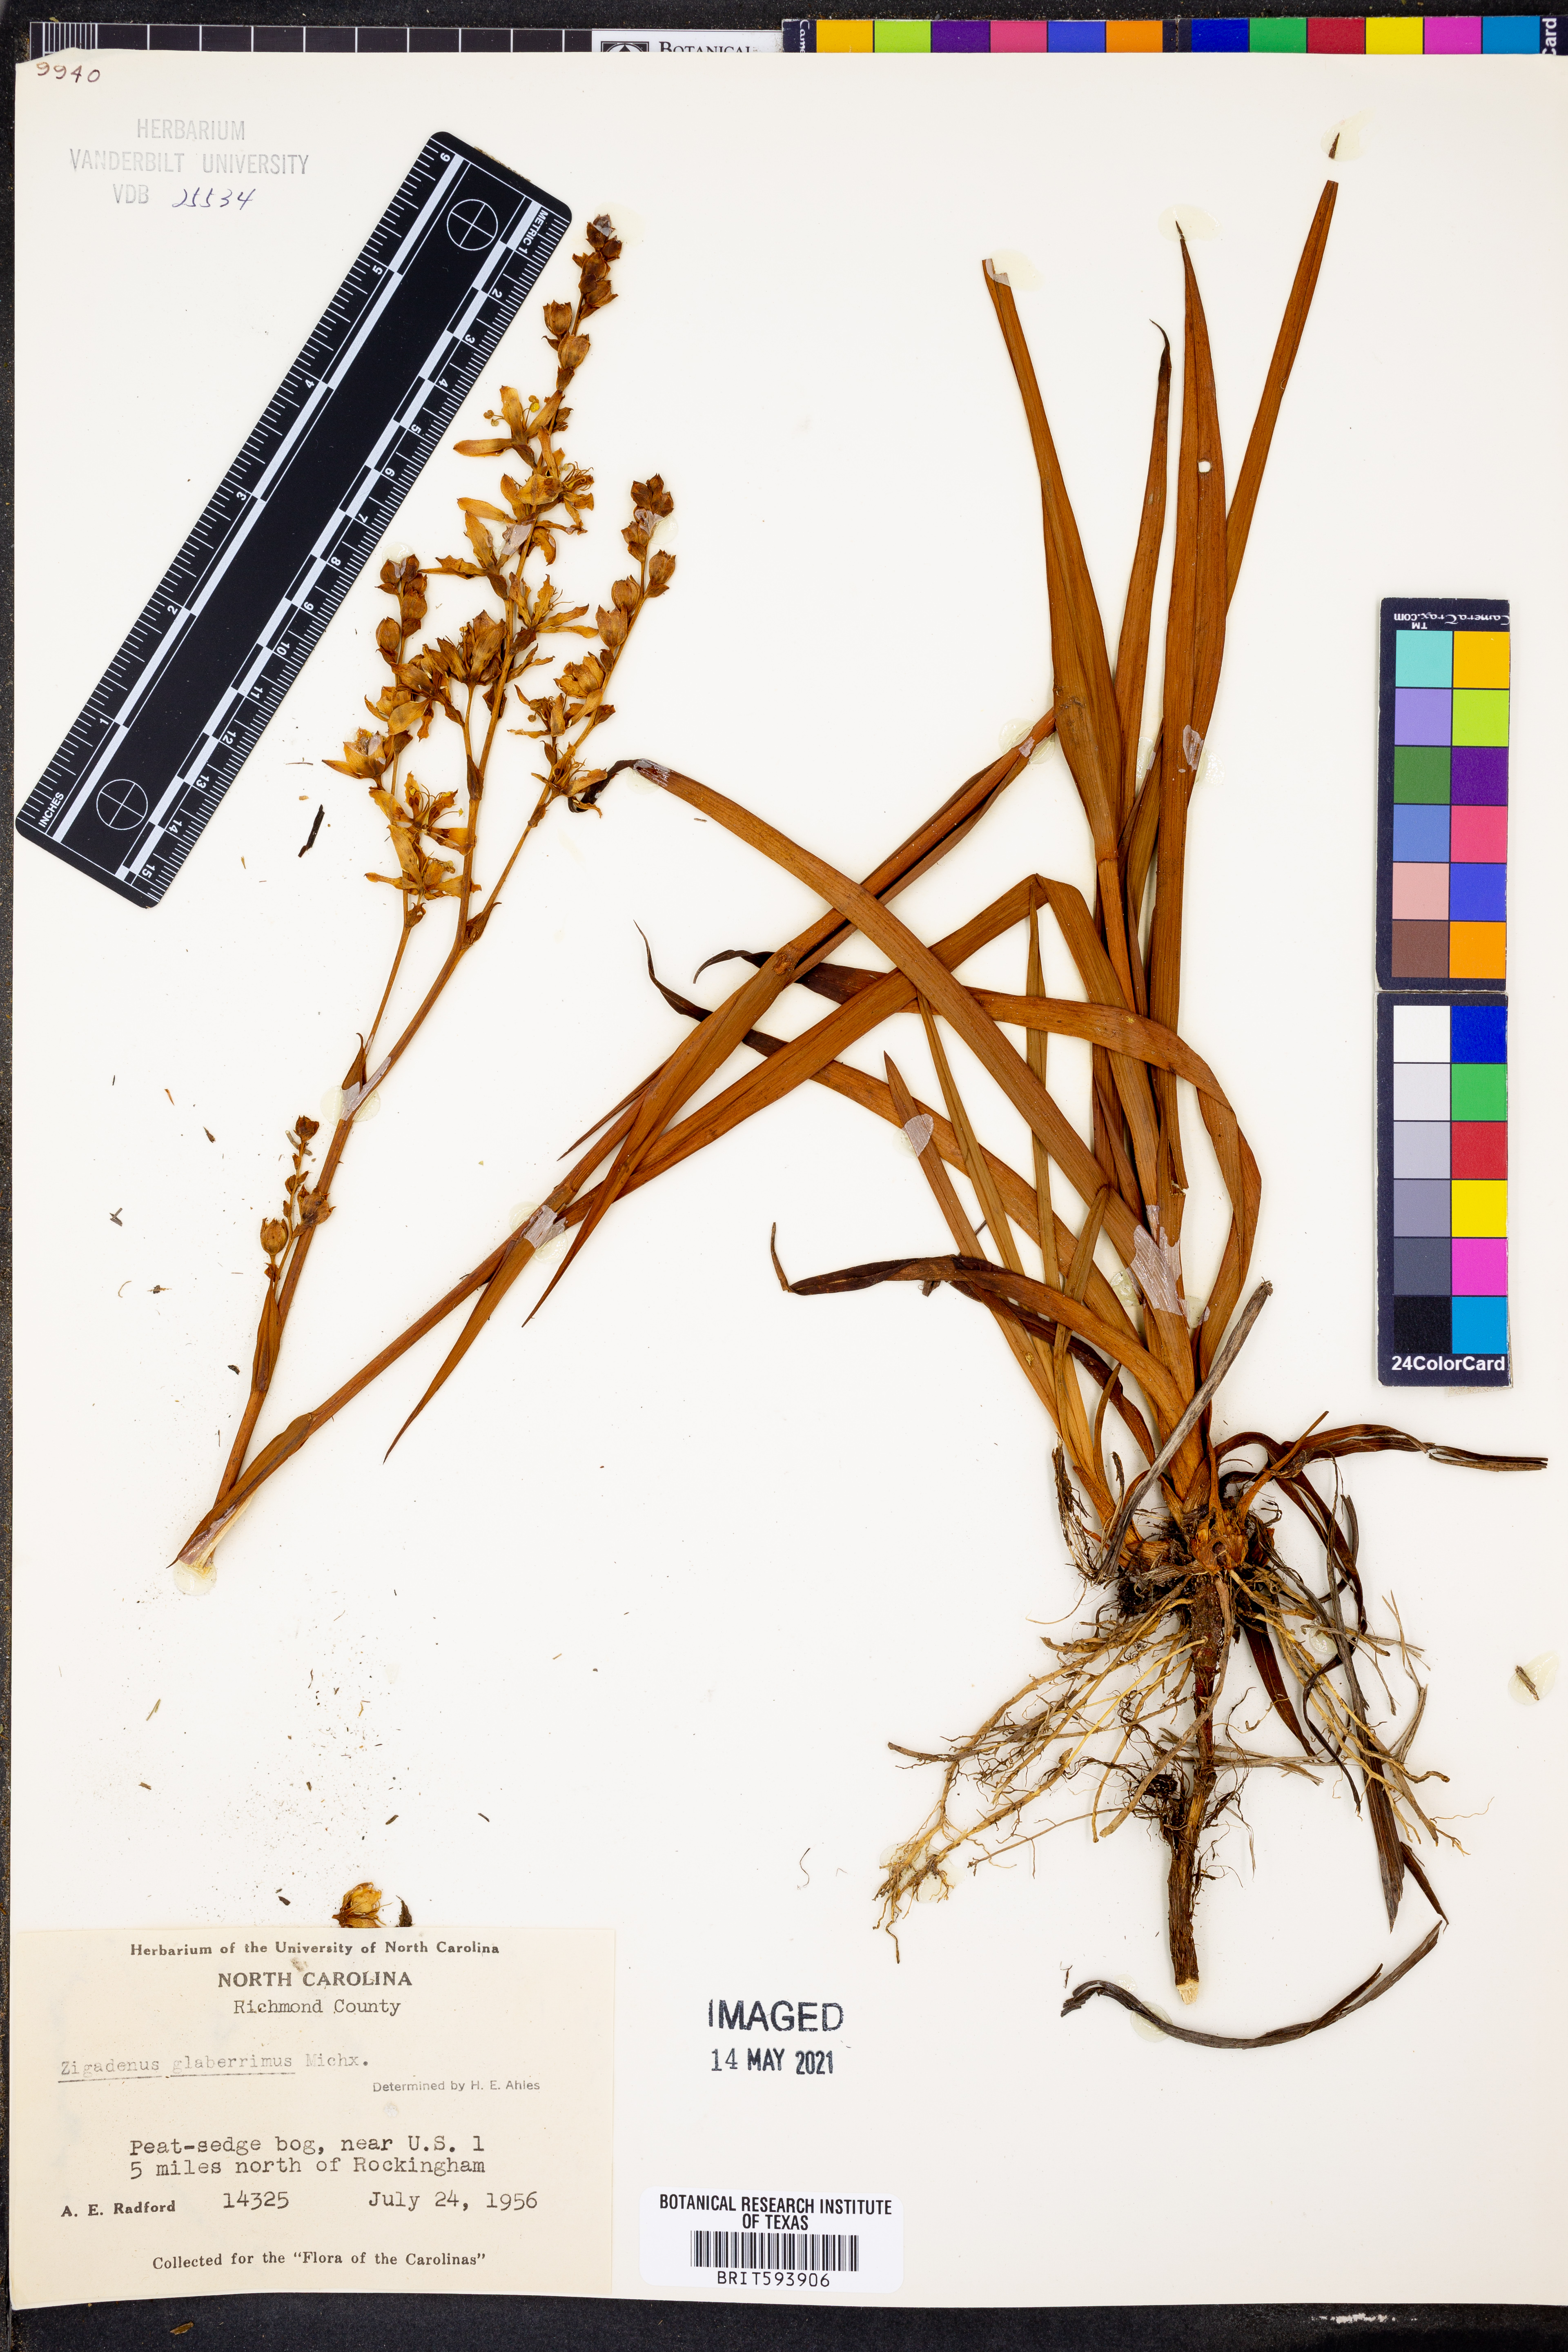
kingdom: Plantae
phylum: Tracheophyta
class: Liliopsida
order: Liliales
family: Melanthiaceae
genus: Zigadenus
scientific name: Zigadenus glaberrimus
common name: Sandbog death camas
